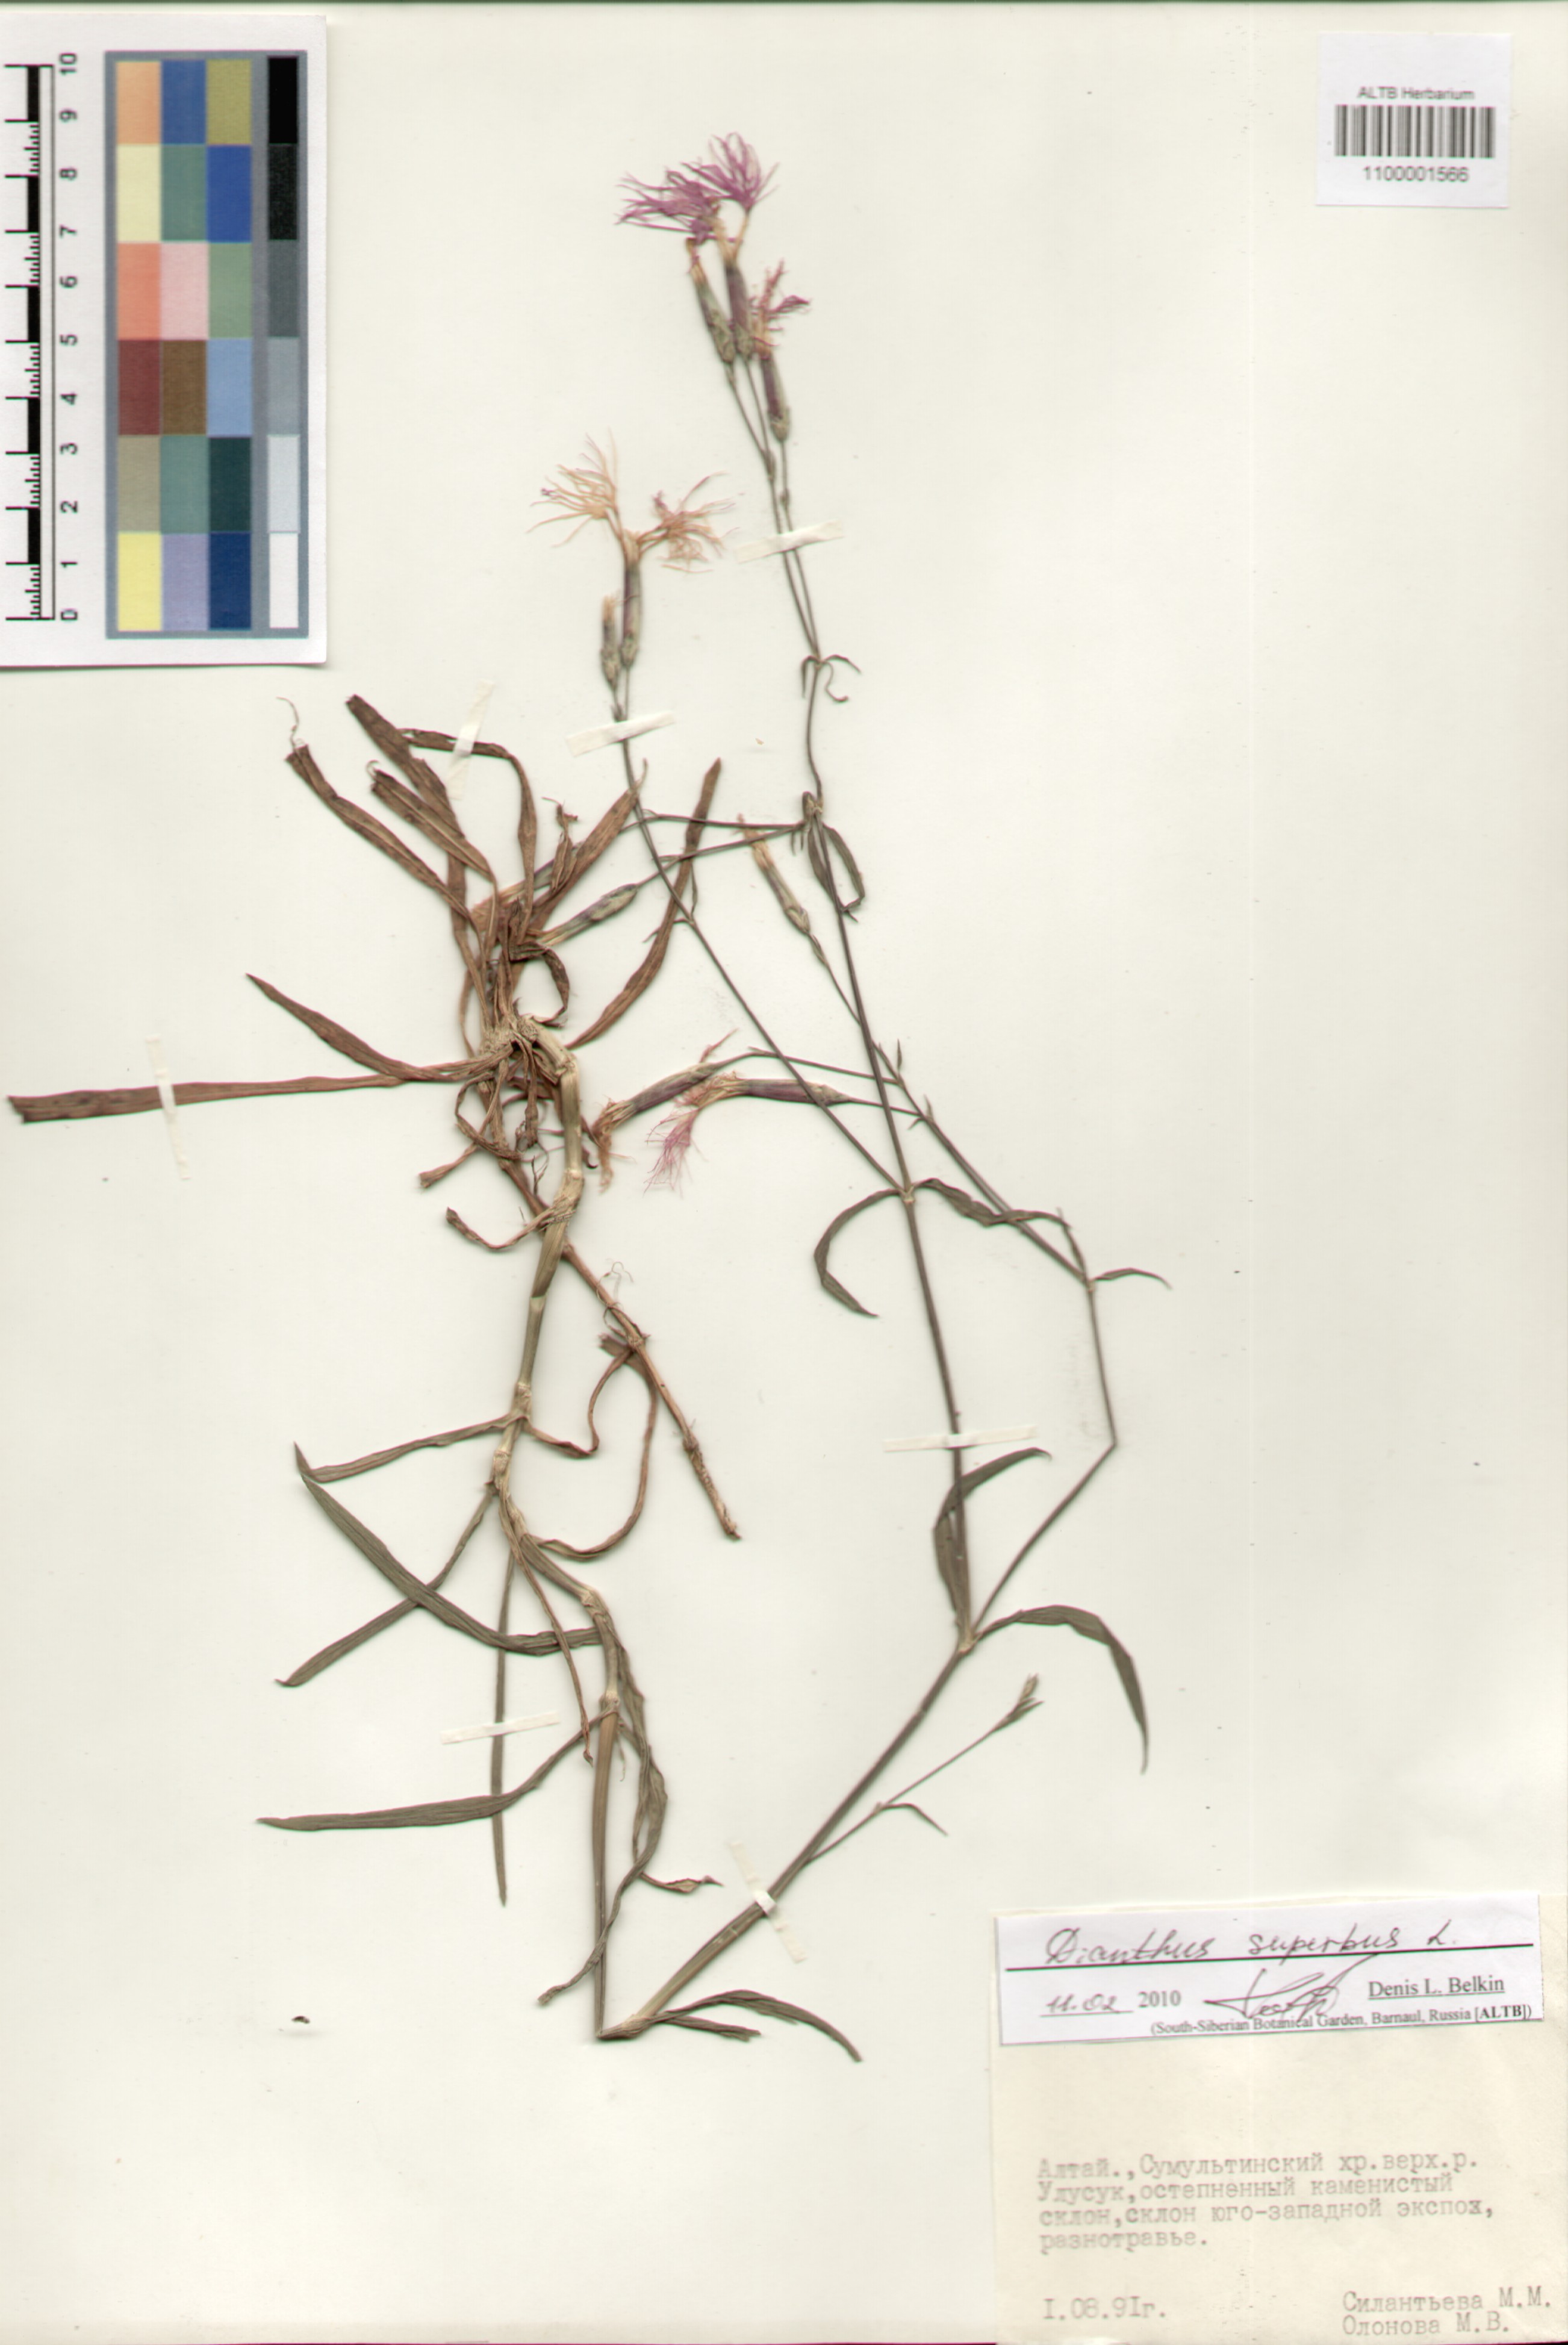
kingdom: Plantae
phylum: Tracheophyta
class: Magnoliopsida
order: Caryophyllales
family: Caryophyllaceae
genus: Dianthus
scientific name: Dianthus superbus
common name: Fringed pink
